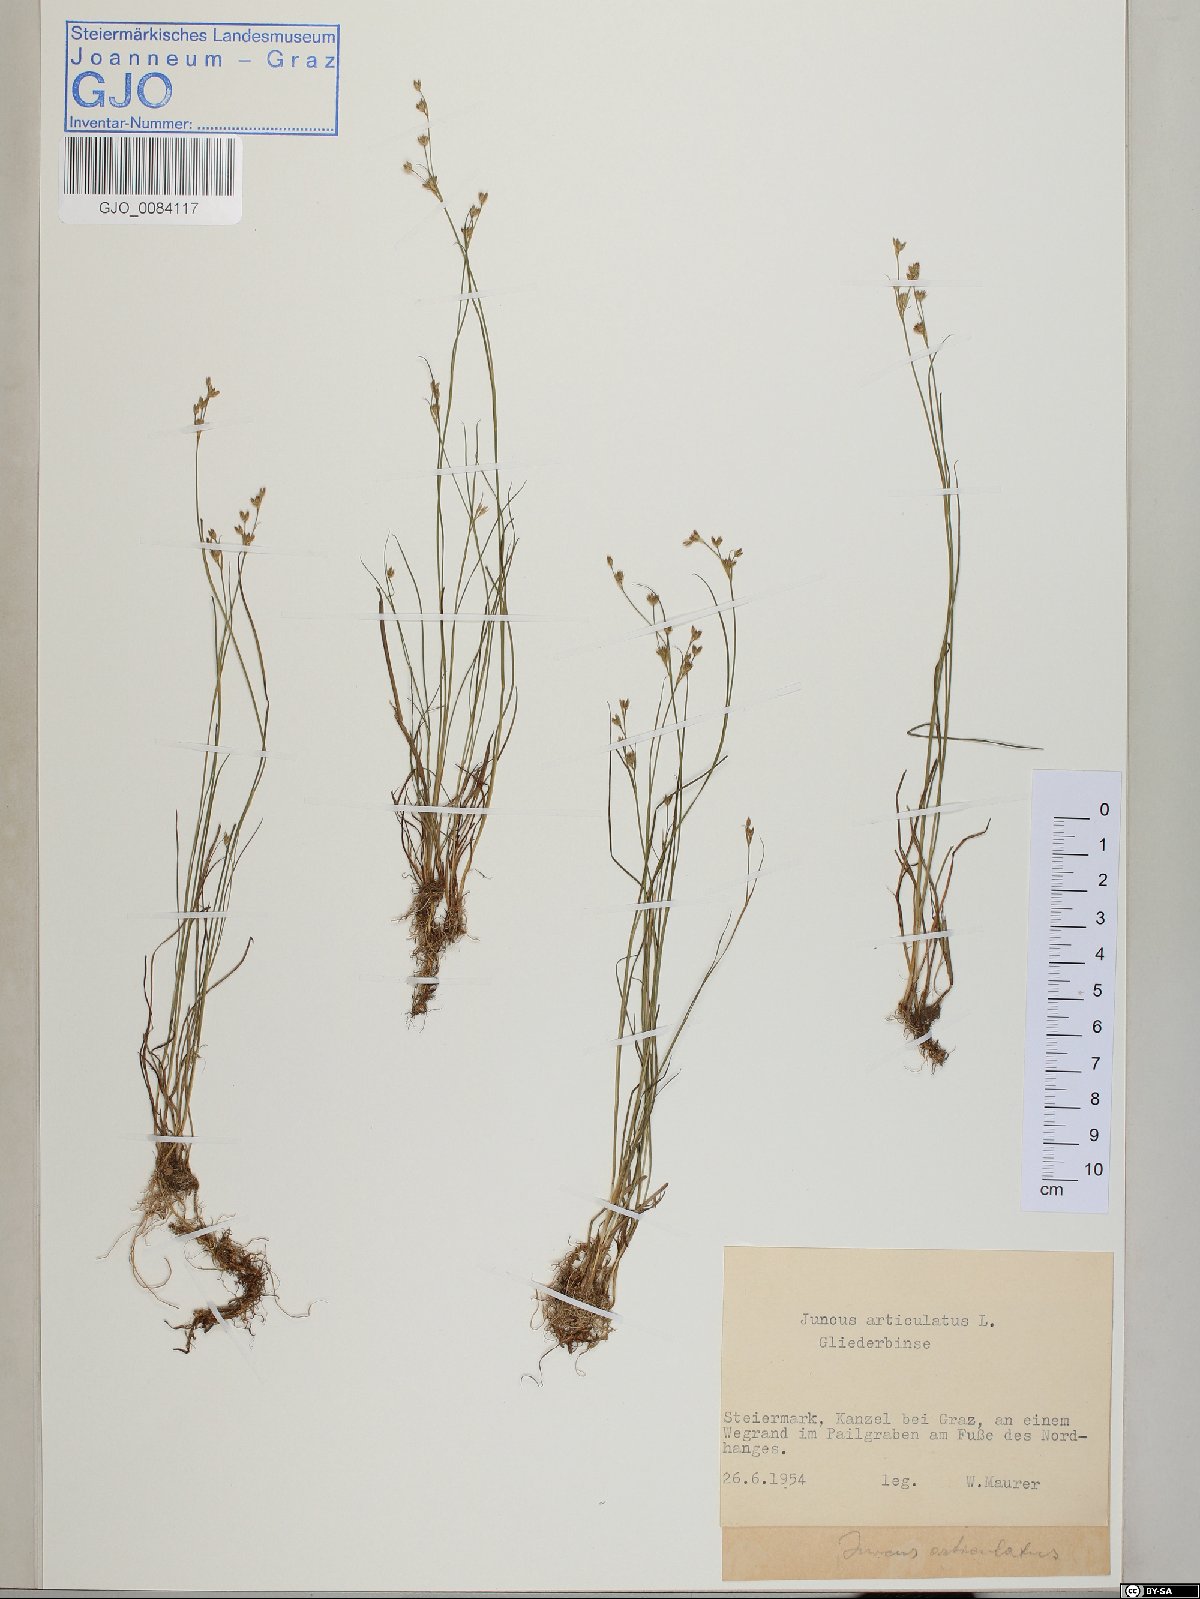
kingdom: Plantae
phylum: Tracheophyta
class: Liliopsida
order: Poales
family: Juncaceae
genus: Juncus
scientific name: Juncus articulatus
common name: Jointed rush
